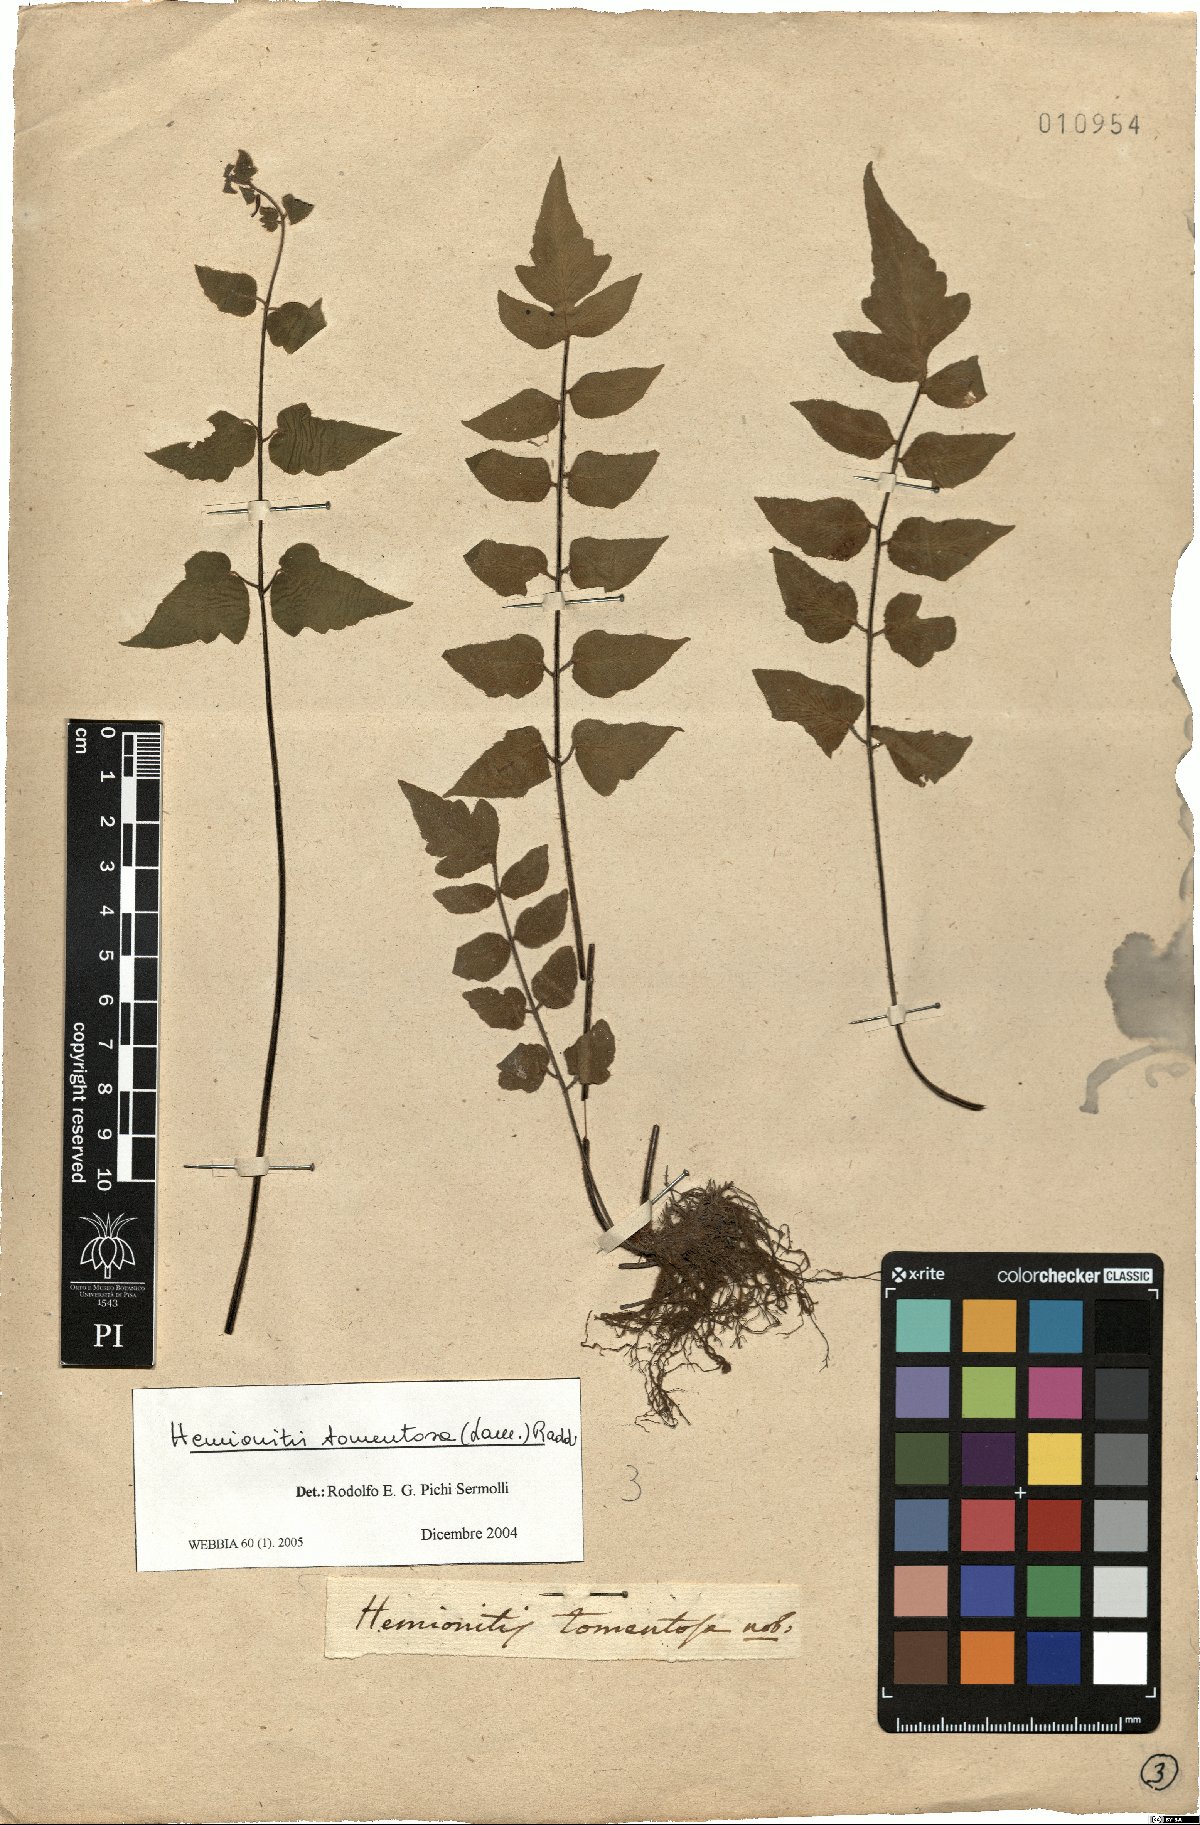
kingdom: Plantae
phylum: Tracheophyta
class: Polypodiopsida
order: Polypodiales
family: Pteridaceae
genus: Hemionitis
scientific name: Hemionitis tomentosa
